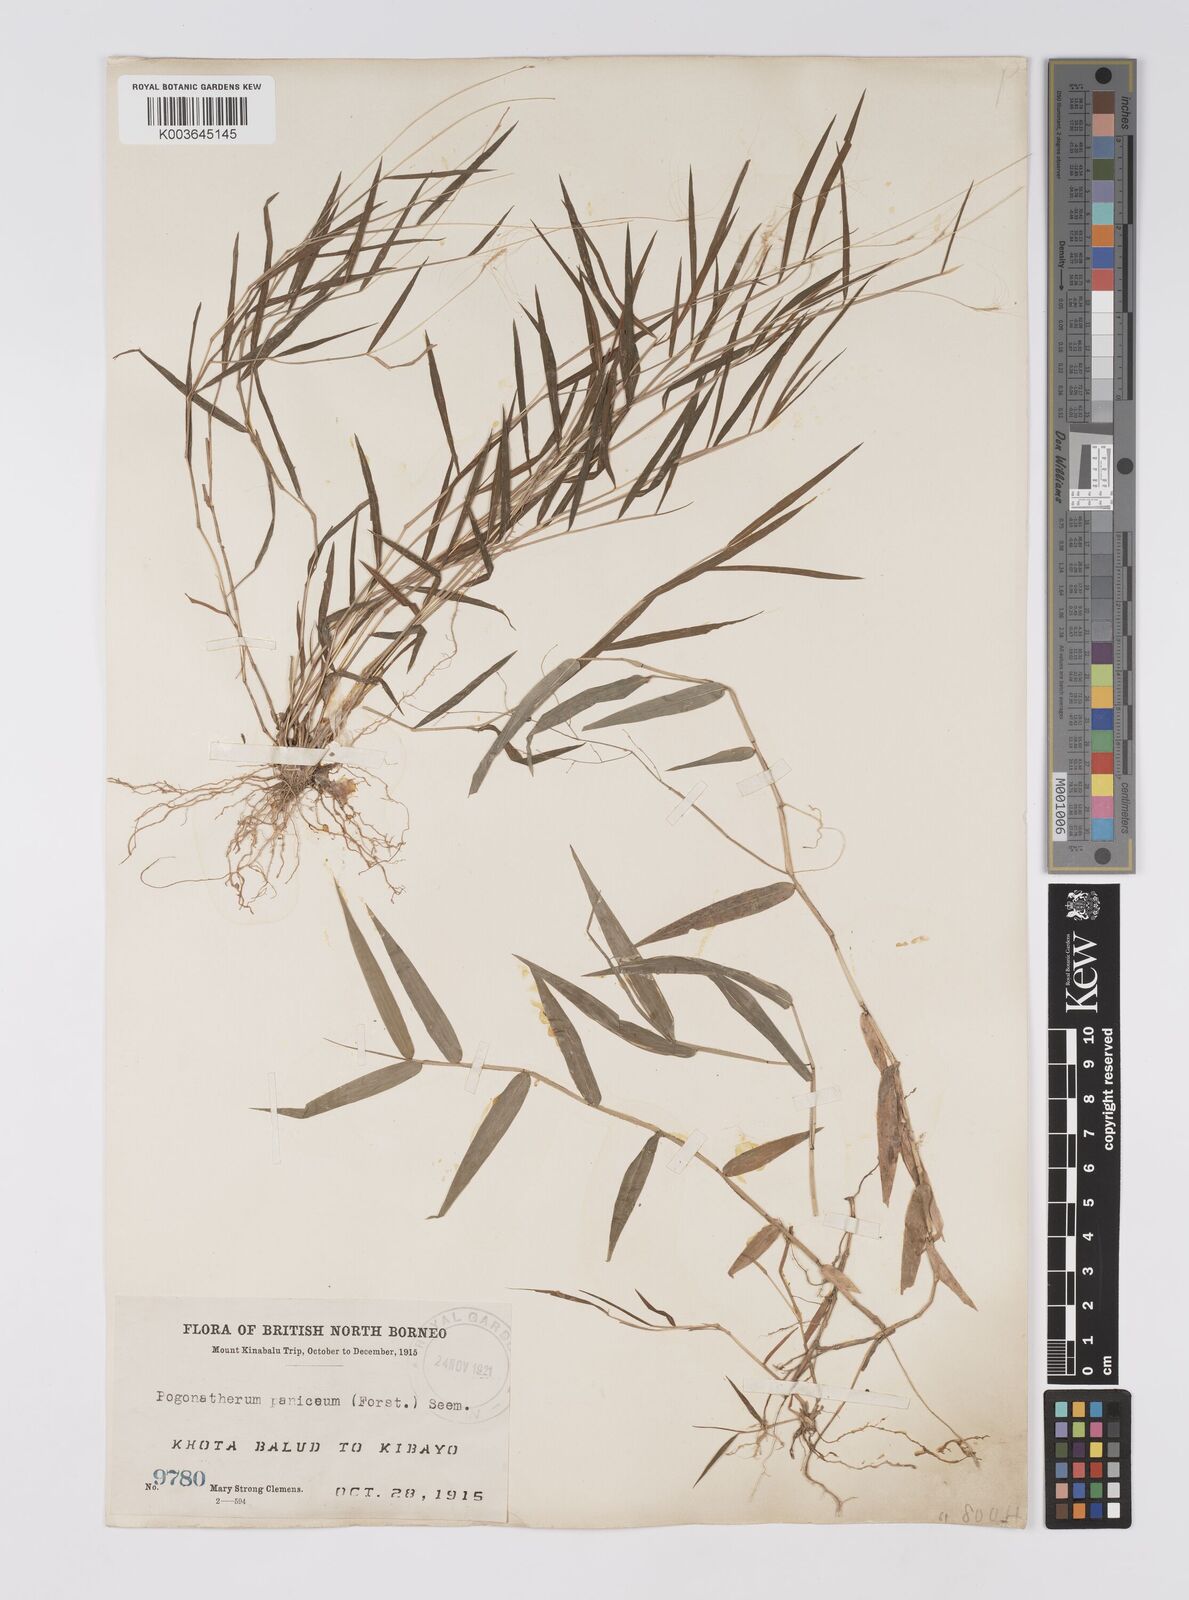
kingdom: Plantae
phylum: Tracheophyta
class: Liliopsida
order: Poales
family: Poaceae
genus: Pogonatherum
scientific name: Pogonatherum crinitum
